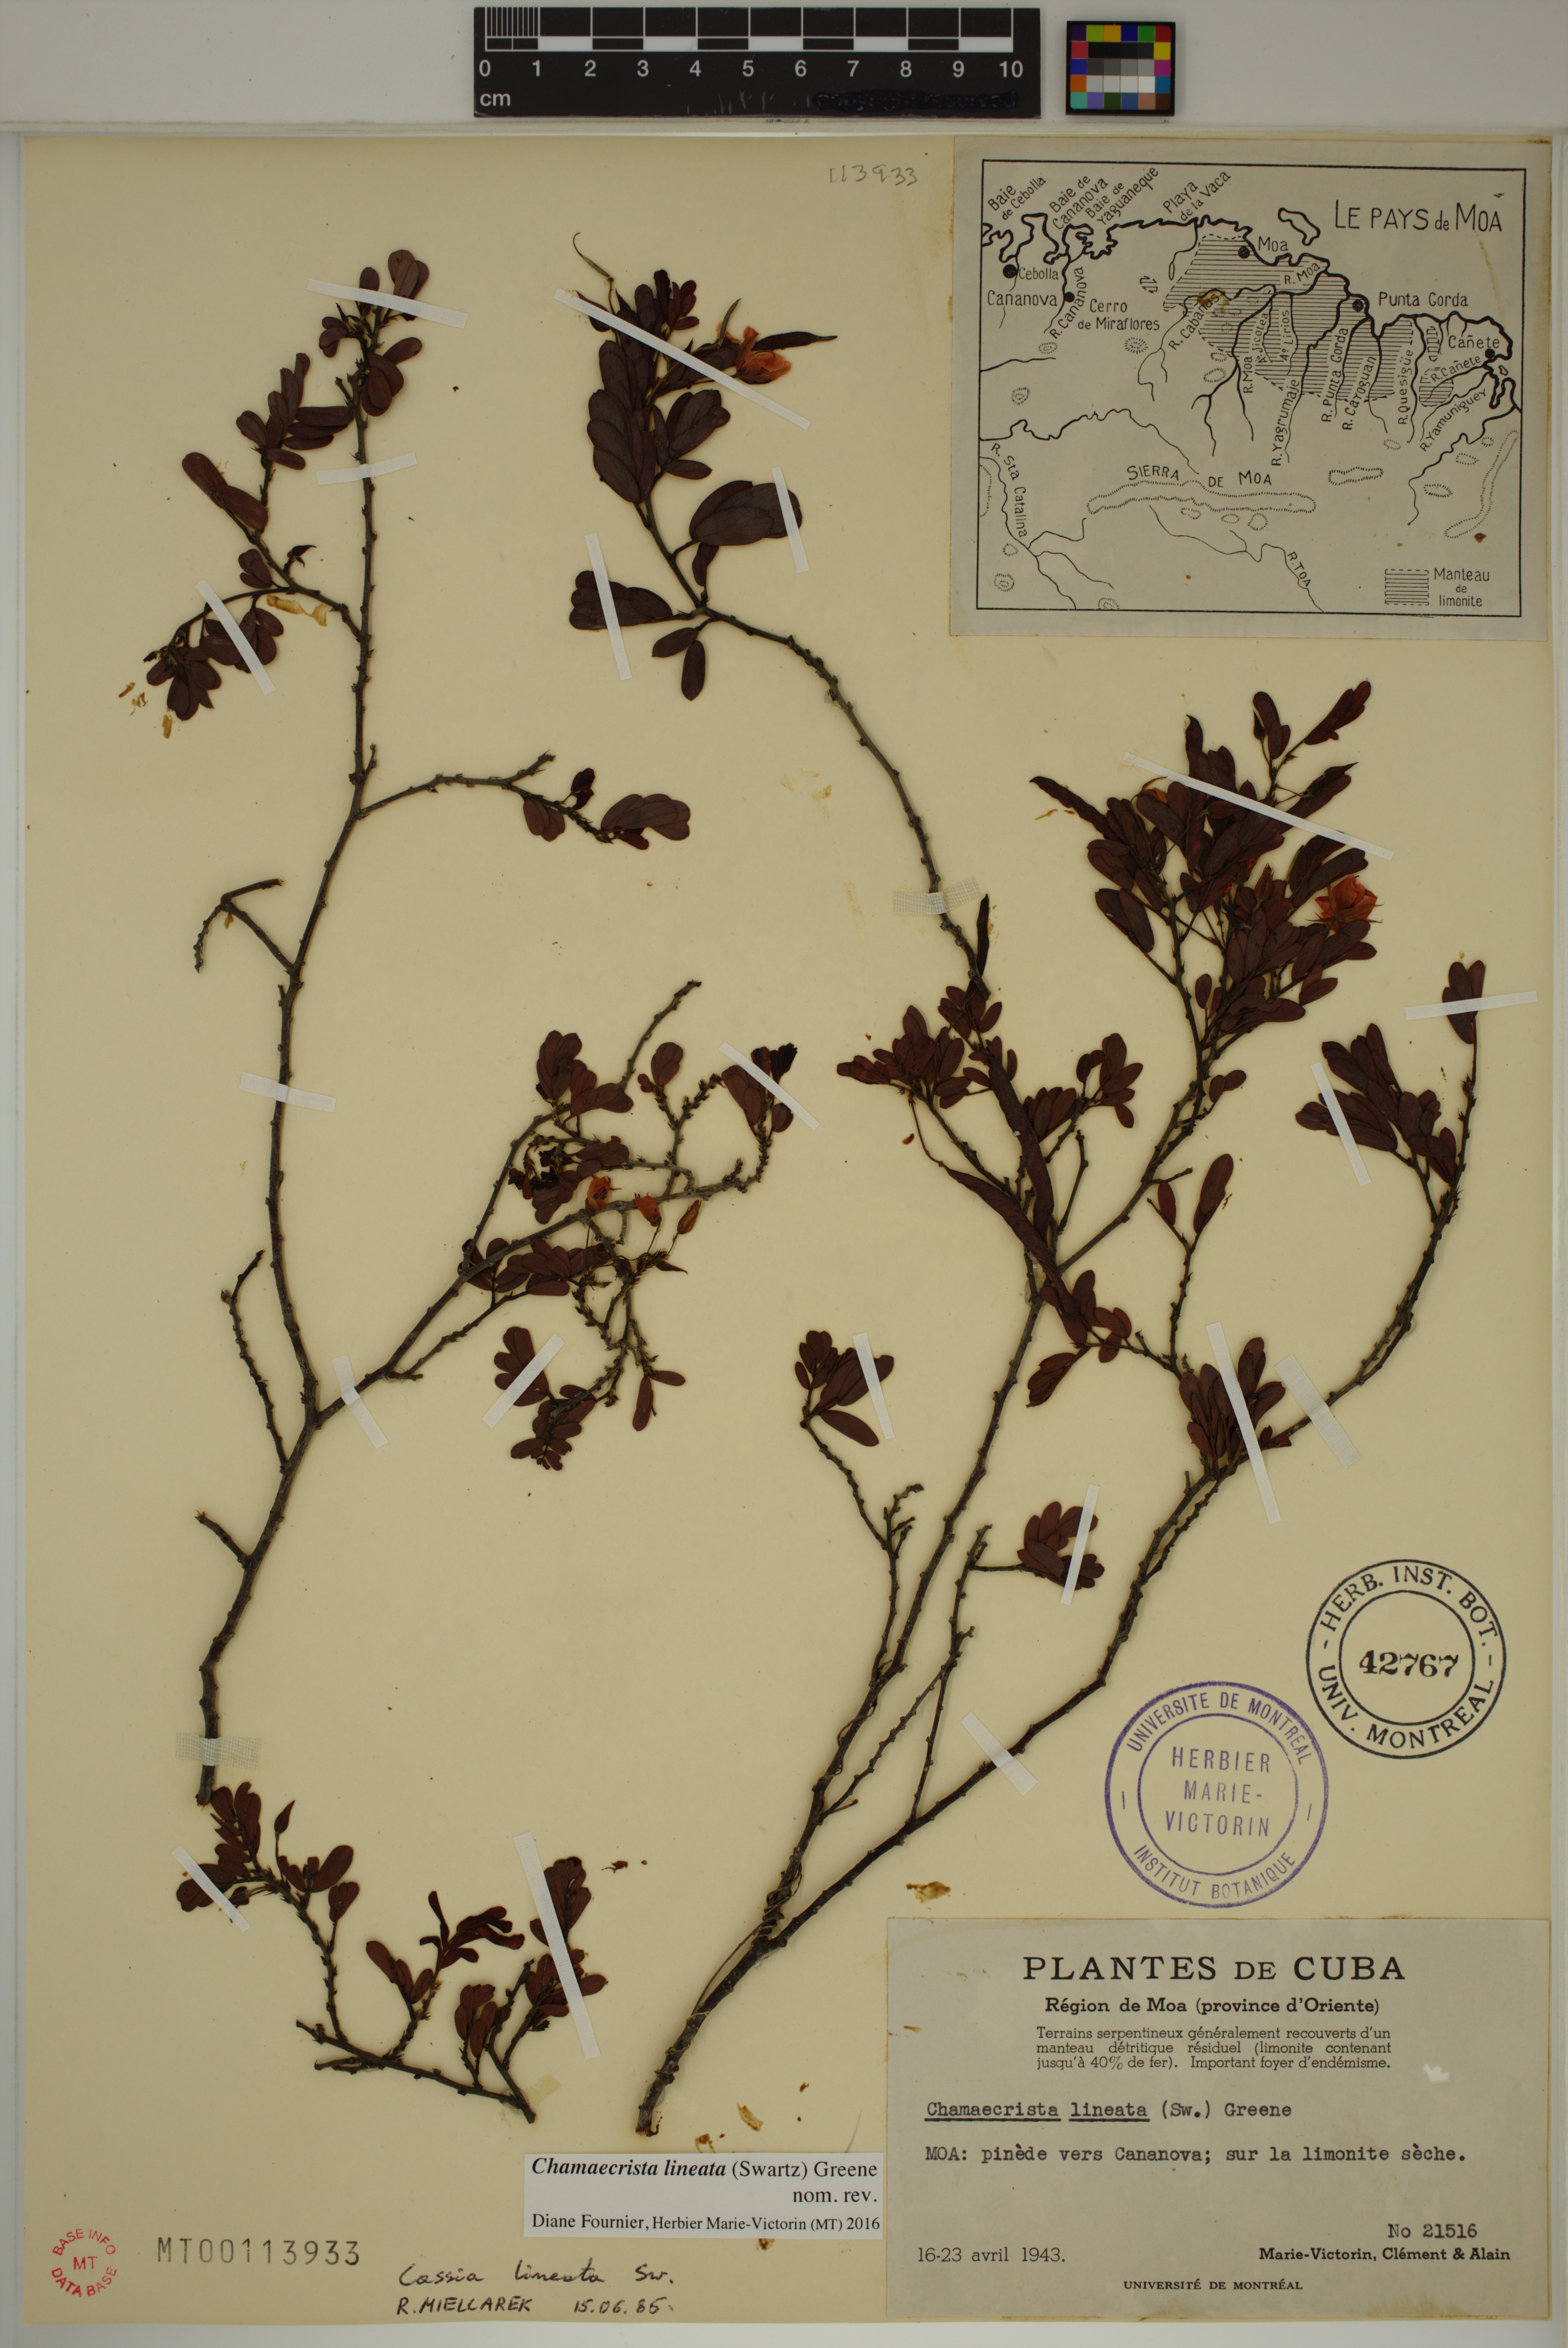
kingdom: Plantae
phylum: Tracheophyta
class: Magnoliopsida
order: Fabales
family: Fabaceae
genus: Chamaecrista
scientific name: Chamaecrista lineata
